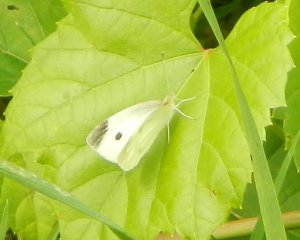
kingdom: Animalia
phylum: Arthropoda
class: Insecta
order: Lepidoptera
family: Pieridae
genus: Pieris
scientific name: Pieris rapae
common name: Cabbage White
